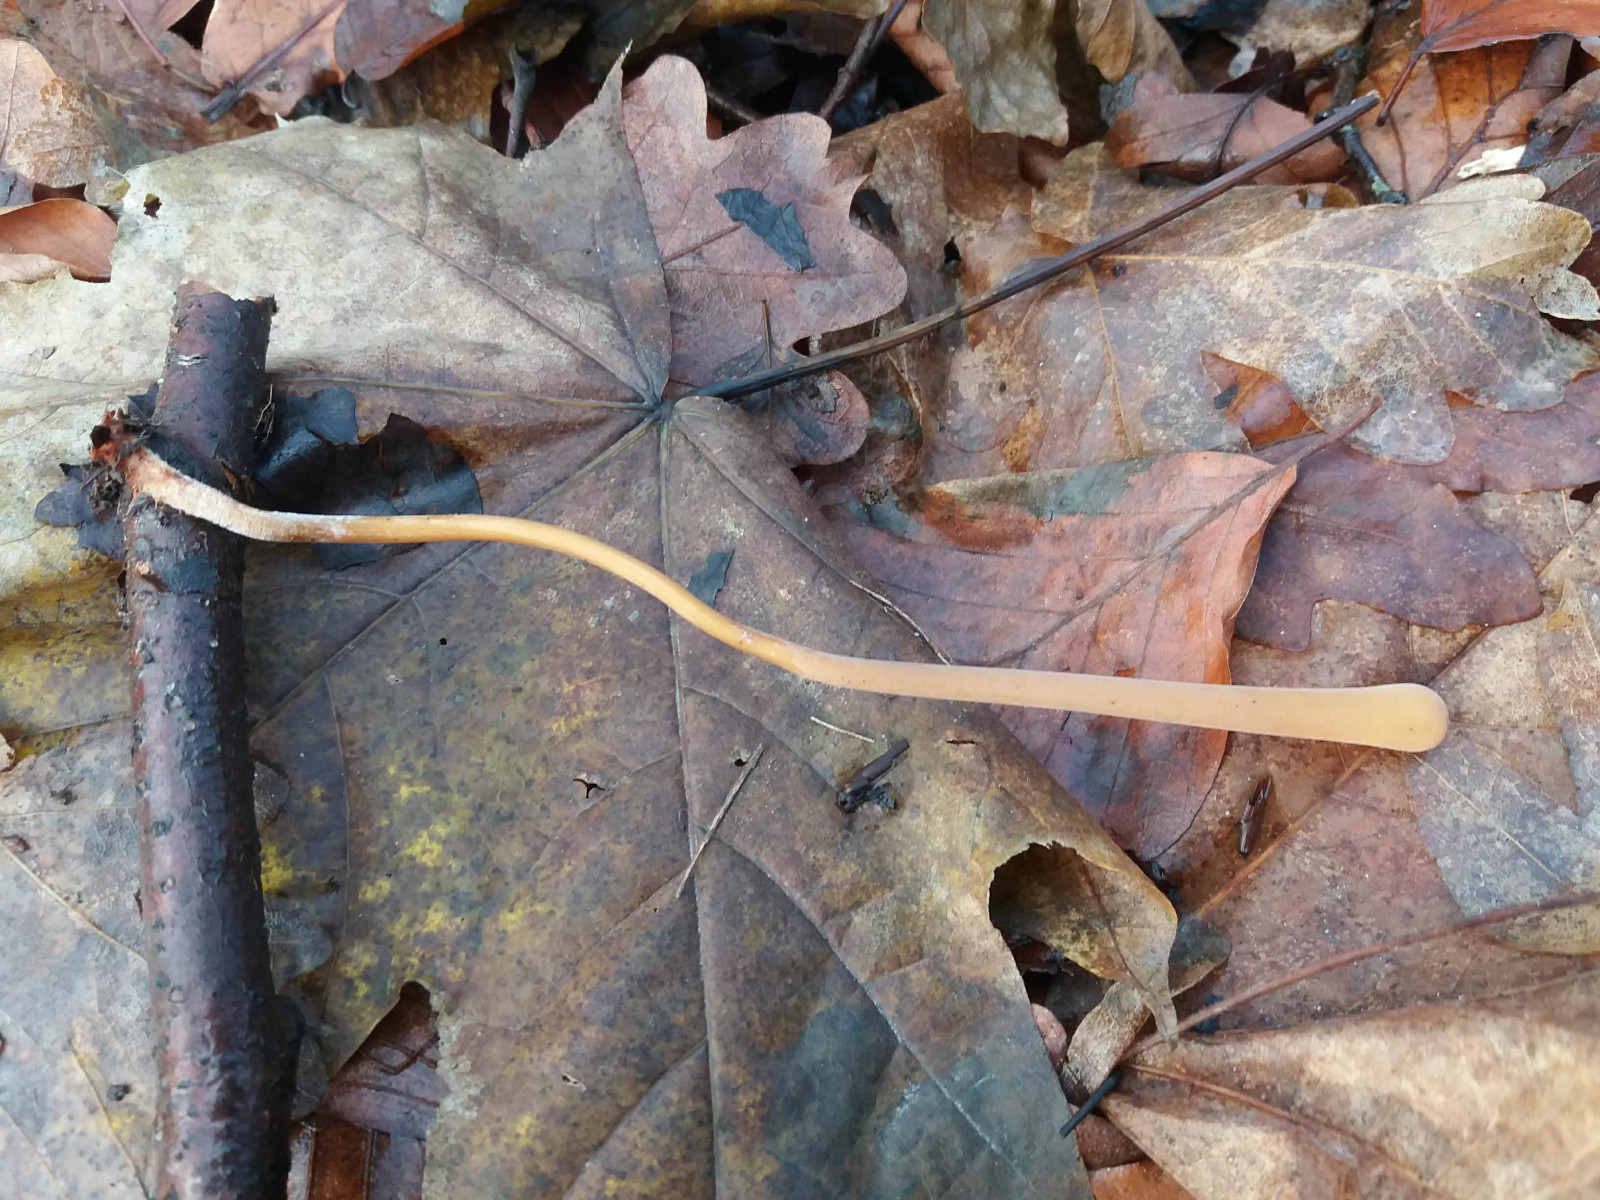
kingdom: Fungi
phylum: Basidiomycota
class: Agaricomycetes
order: Agaricales
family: Typhulaceae
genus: Typhula
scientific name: Typhula fistulosa
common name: pibet rørkølle
